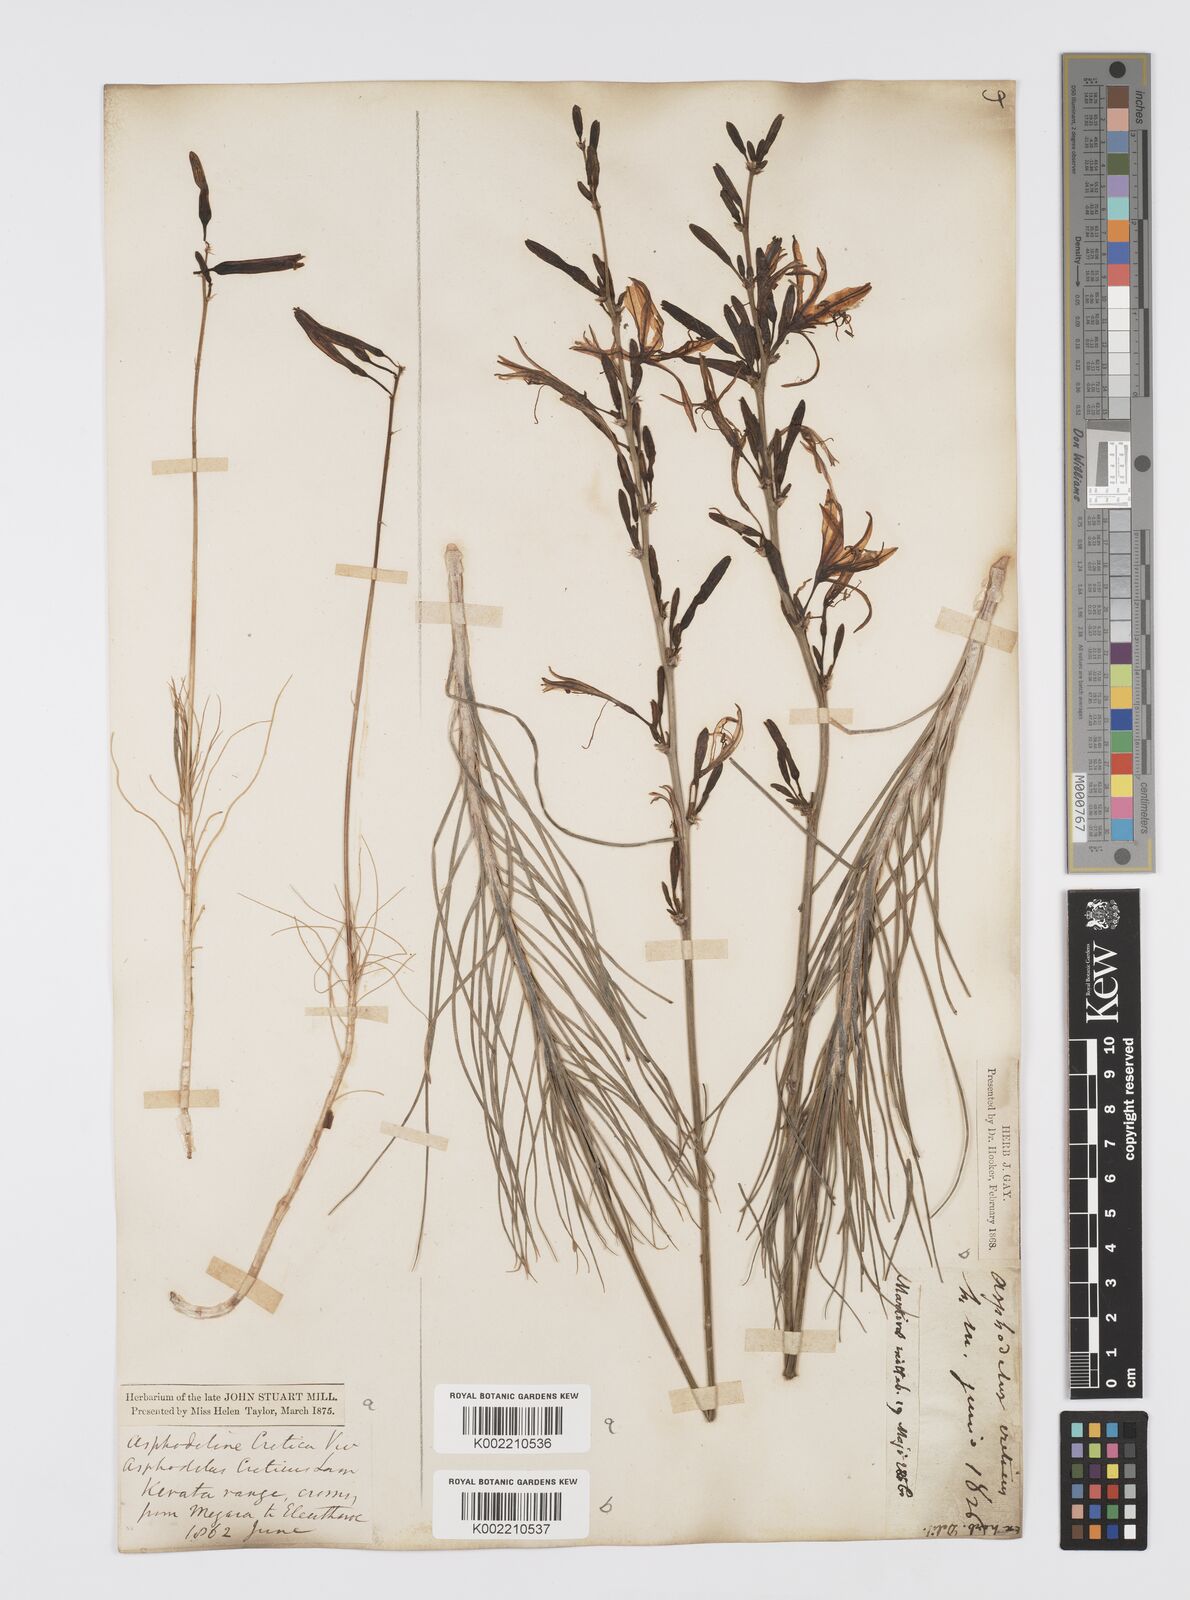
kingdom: Plantae
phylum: Tracheophyta
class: Liliopsida
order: Asparagales
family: Asphodelaceae
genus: Asphodeline
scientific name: Asphodeline liburnica
